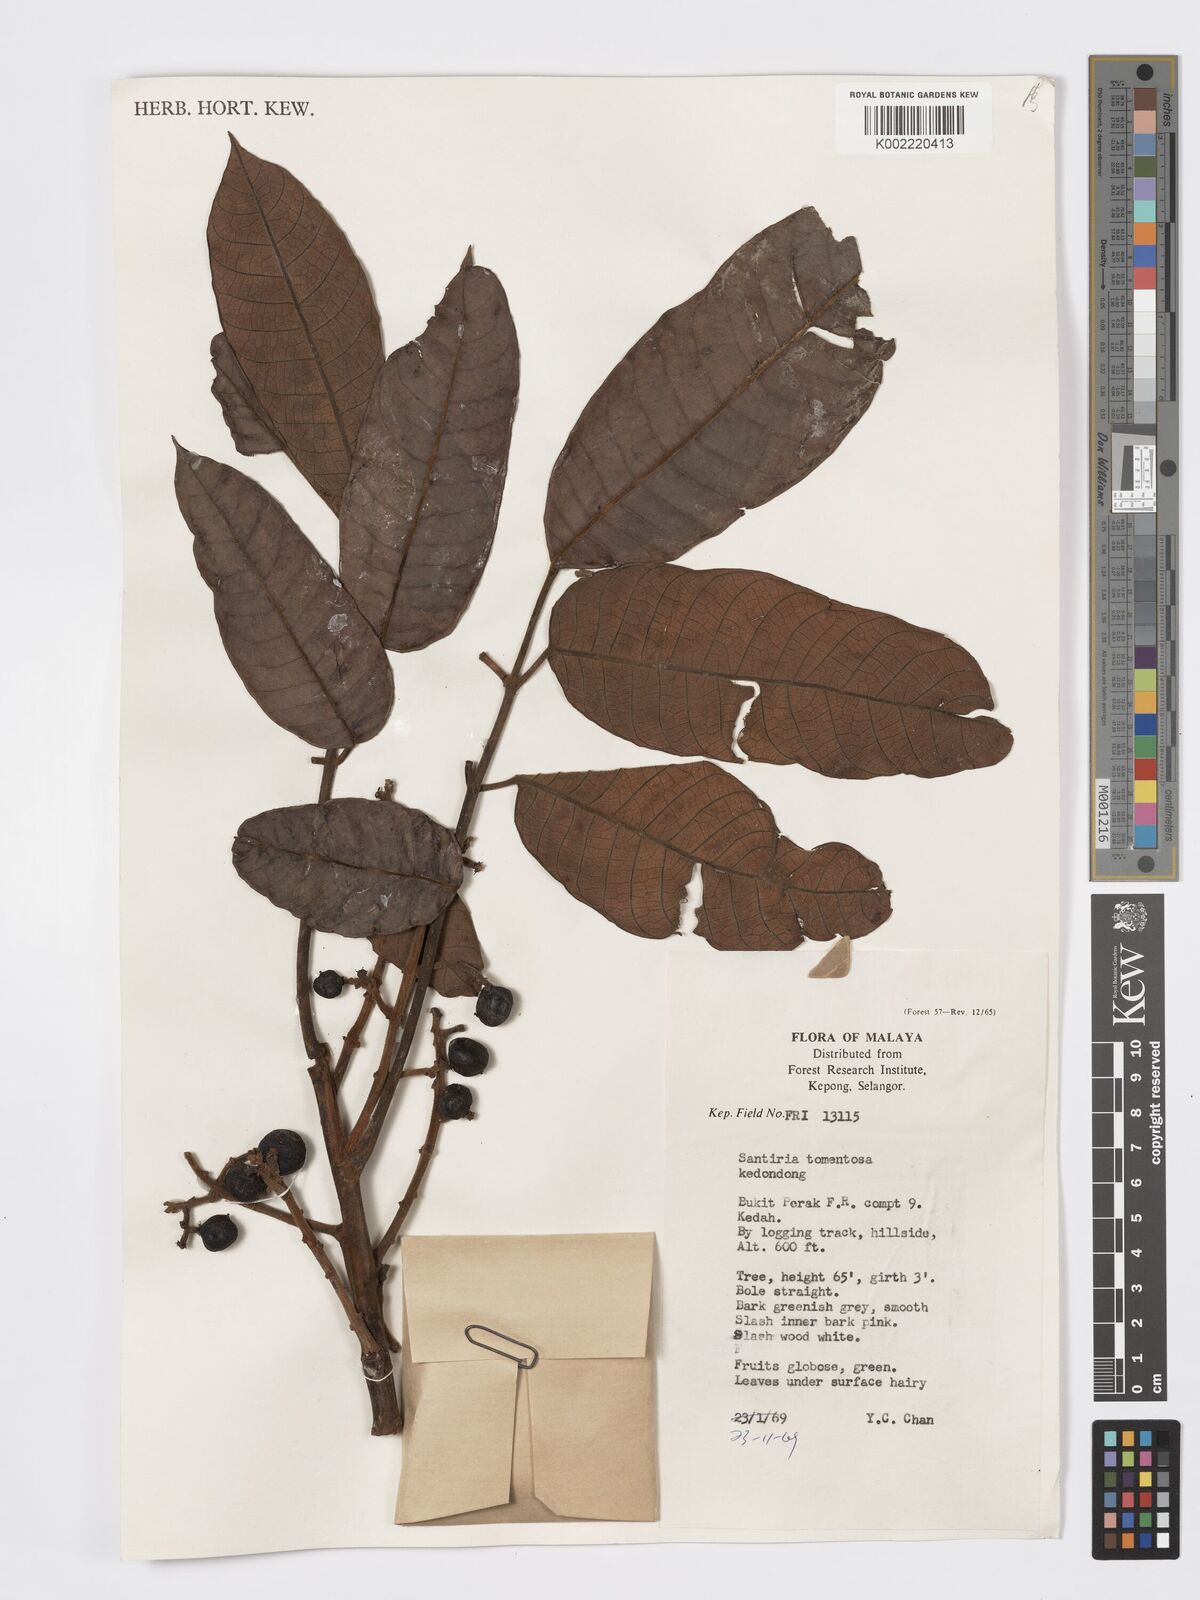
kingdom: Plantae
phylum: Tracheophyta
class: Magnoliopsida
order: Sapindales
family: Burseraceae
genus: Santiria
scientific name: Santiria tomentosa
